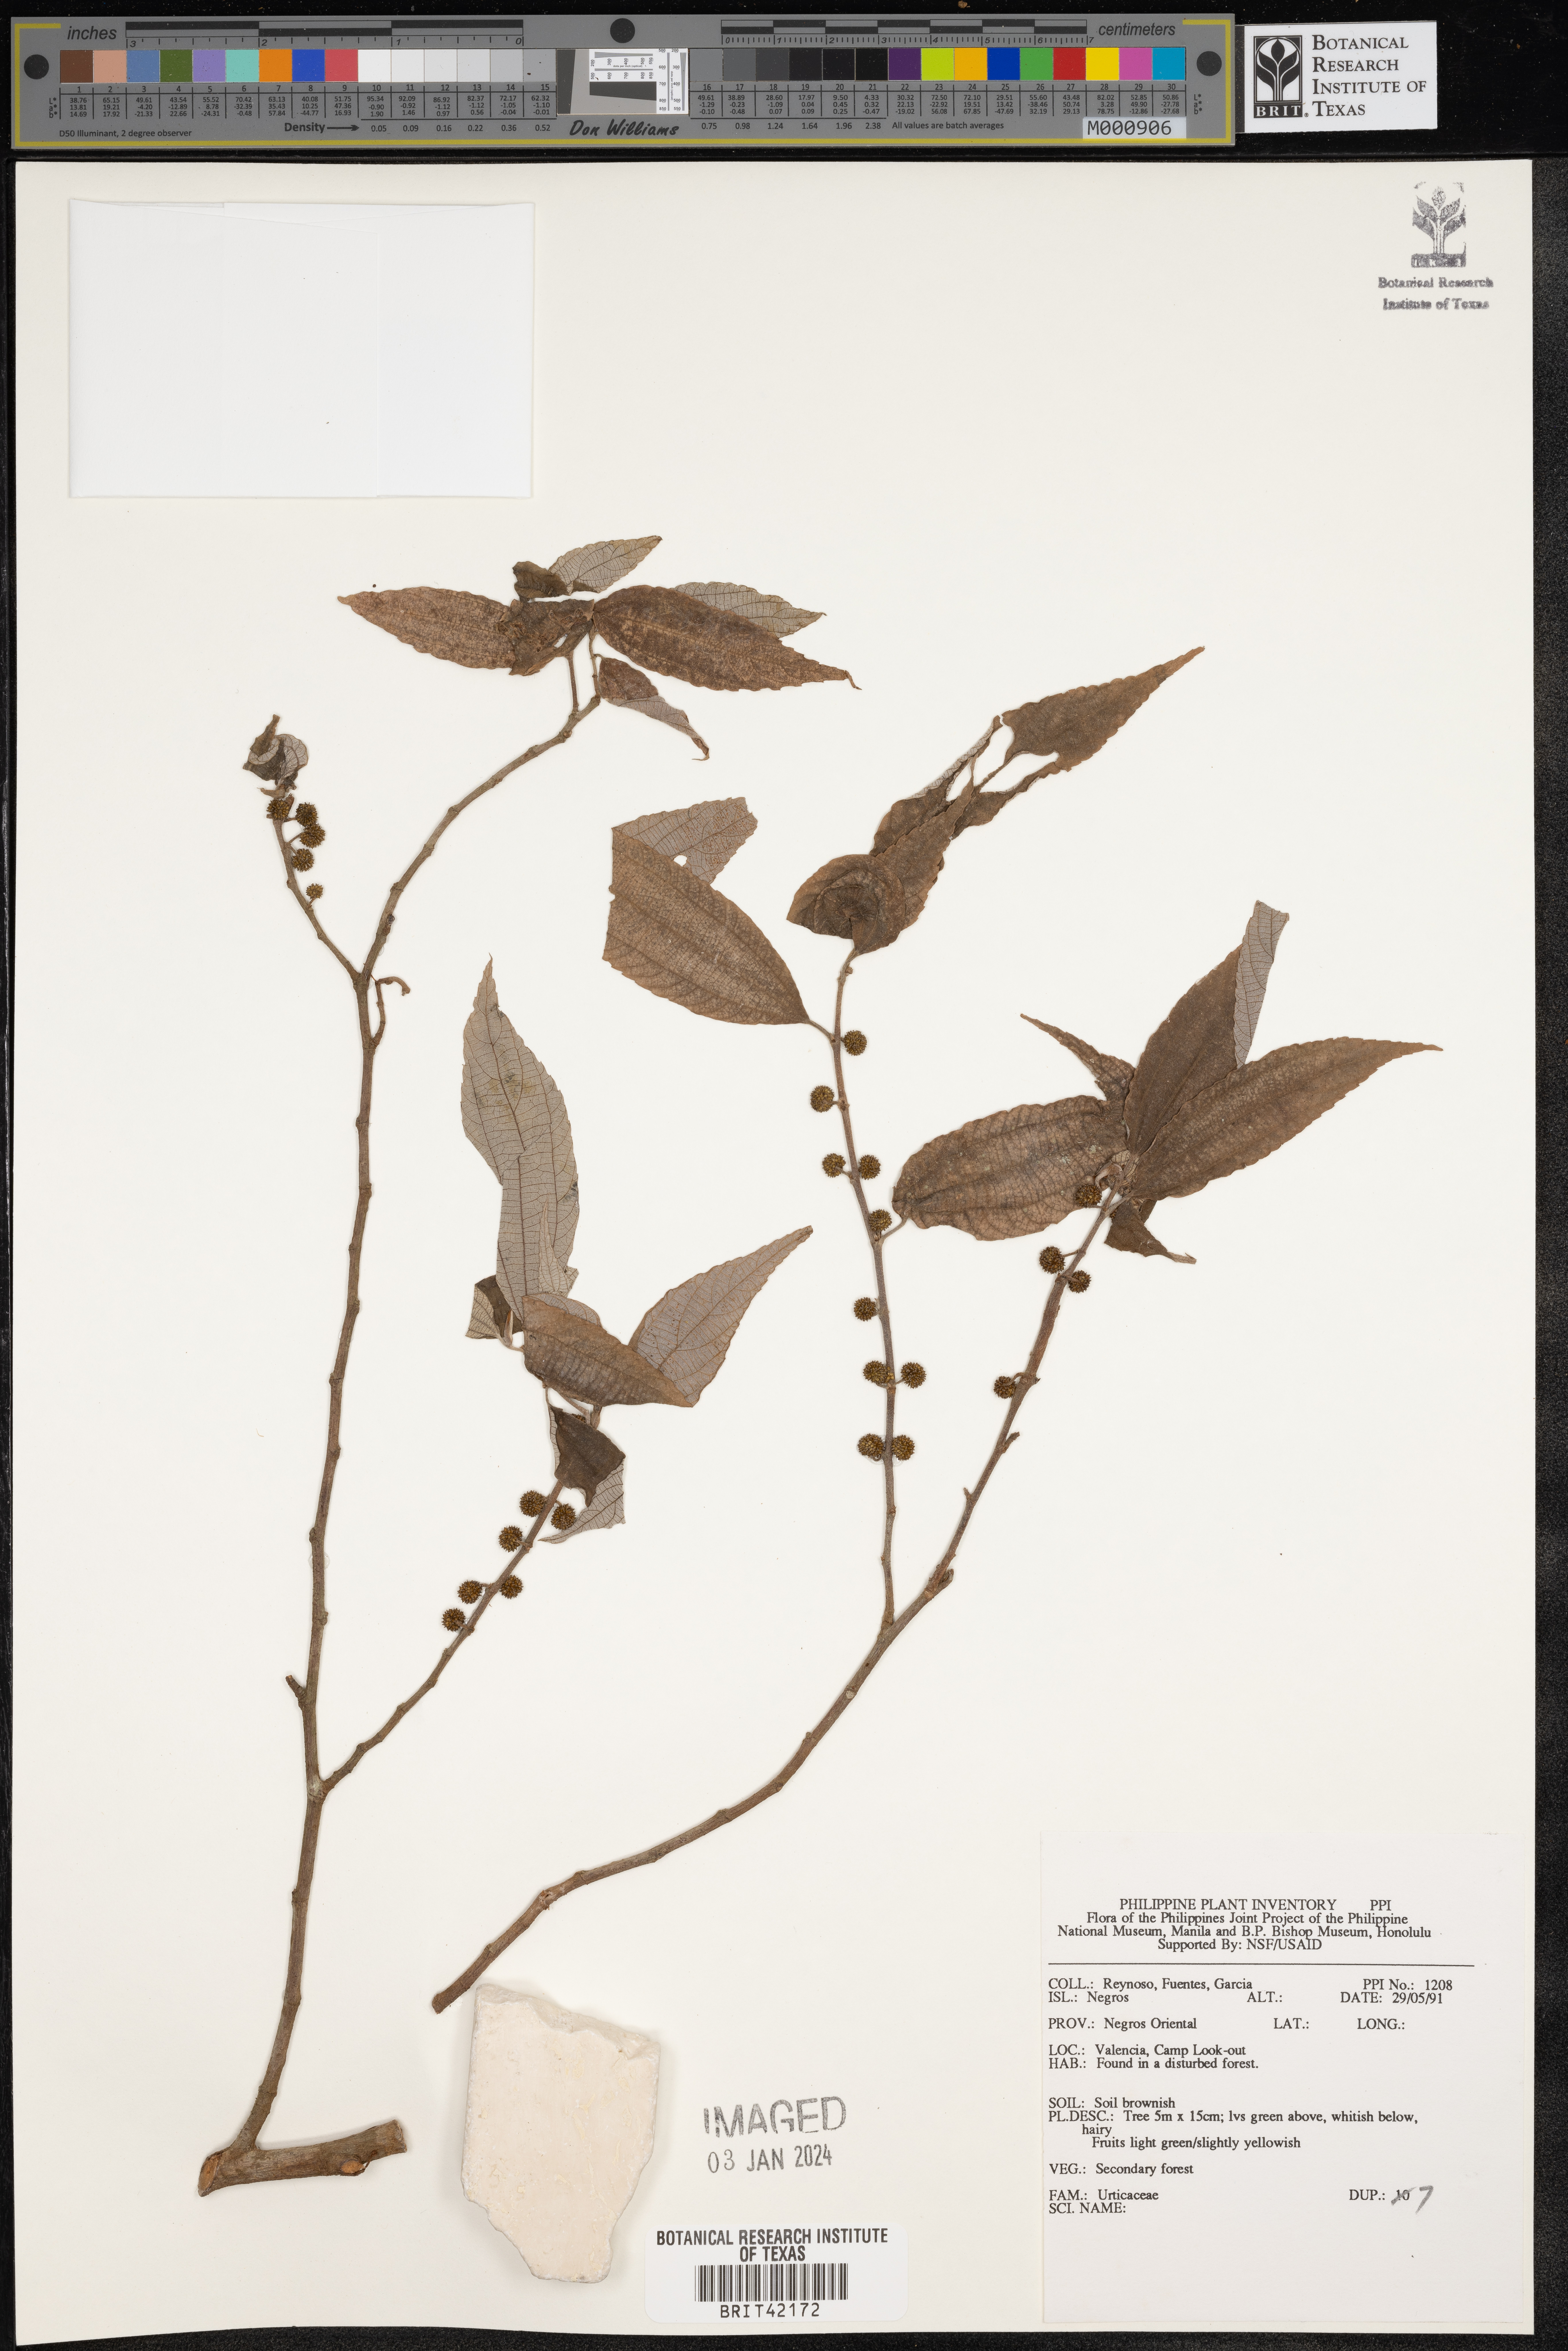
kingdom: Plantae
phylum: Tracheophyta
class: Magnoliopsida
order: Rosales
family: Urticaceae
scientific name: Urticaceae
